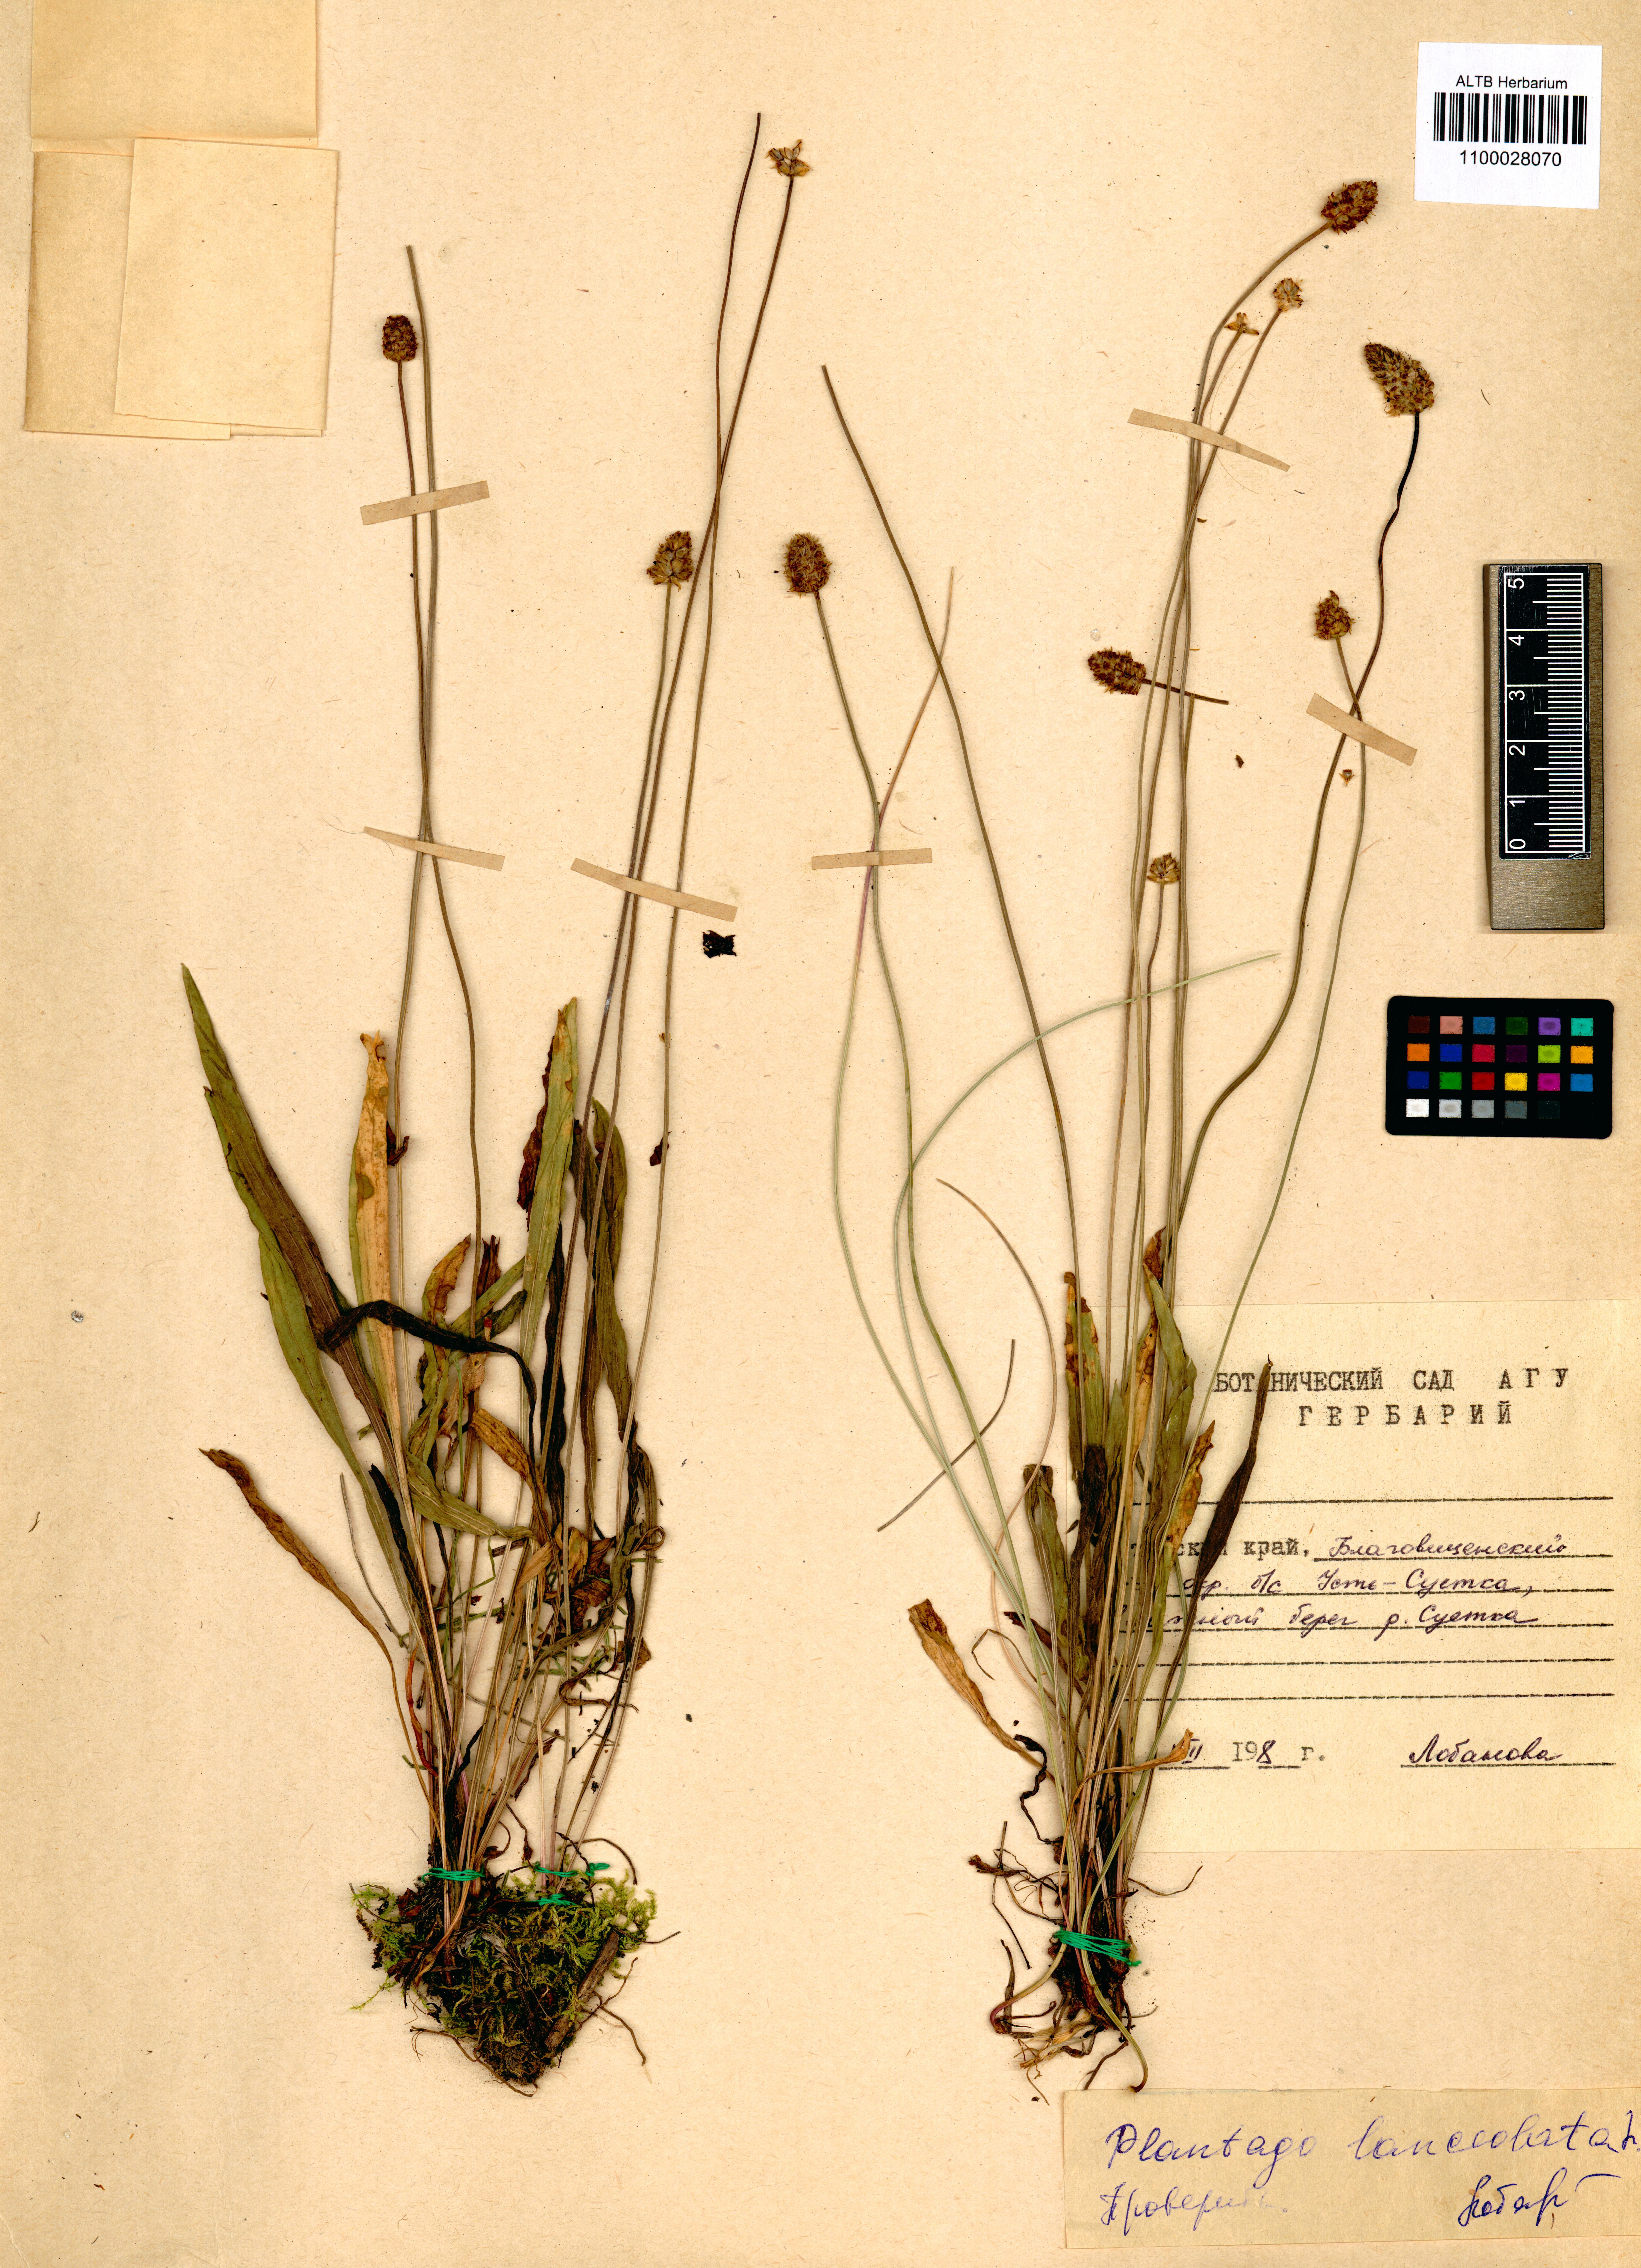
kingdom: Plantae
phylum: Tracheophyta
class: Magnoliopsida
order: Lamiales
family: Plantaginaceae
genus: Plantago
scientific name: Plantago lanceolata
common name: Ribwort plantain
